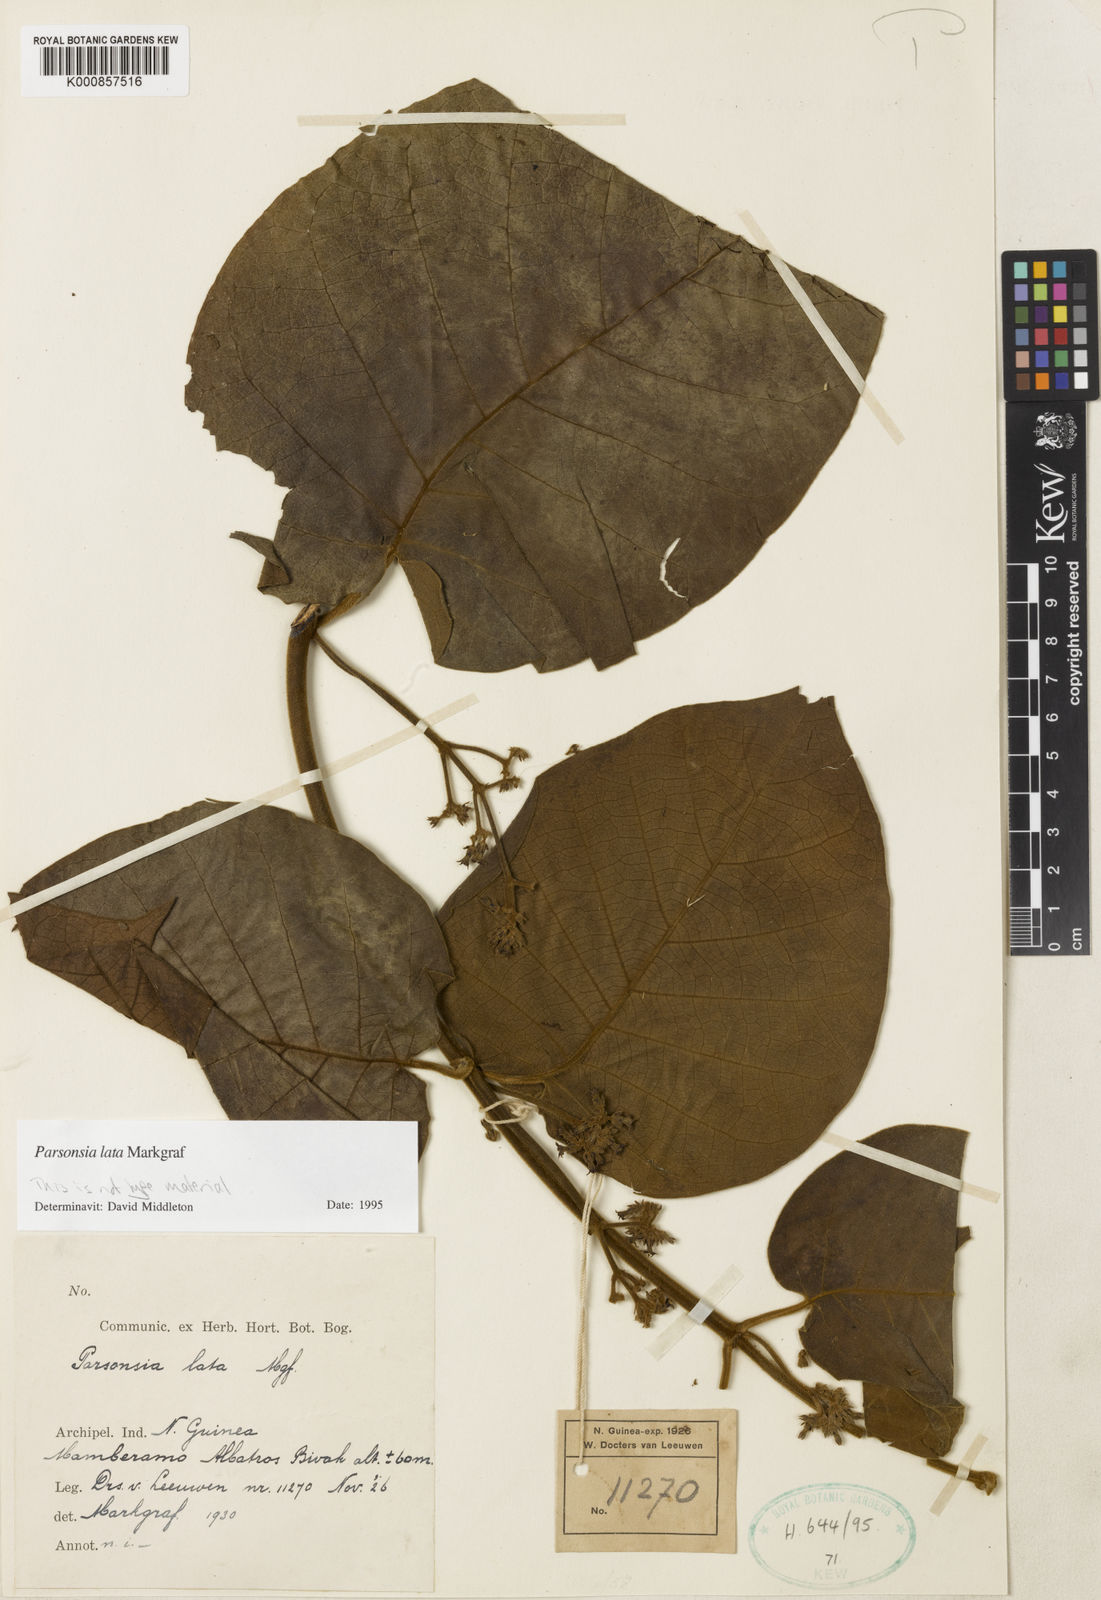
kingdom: Plantae
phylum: Tracheophyta
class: Magnoliopsida
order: Gentianales
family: Apocynaceae
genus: Parsonsia
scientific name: Parsonsia lata
